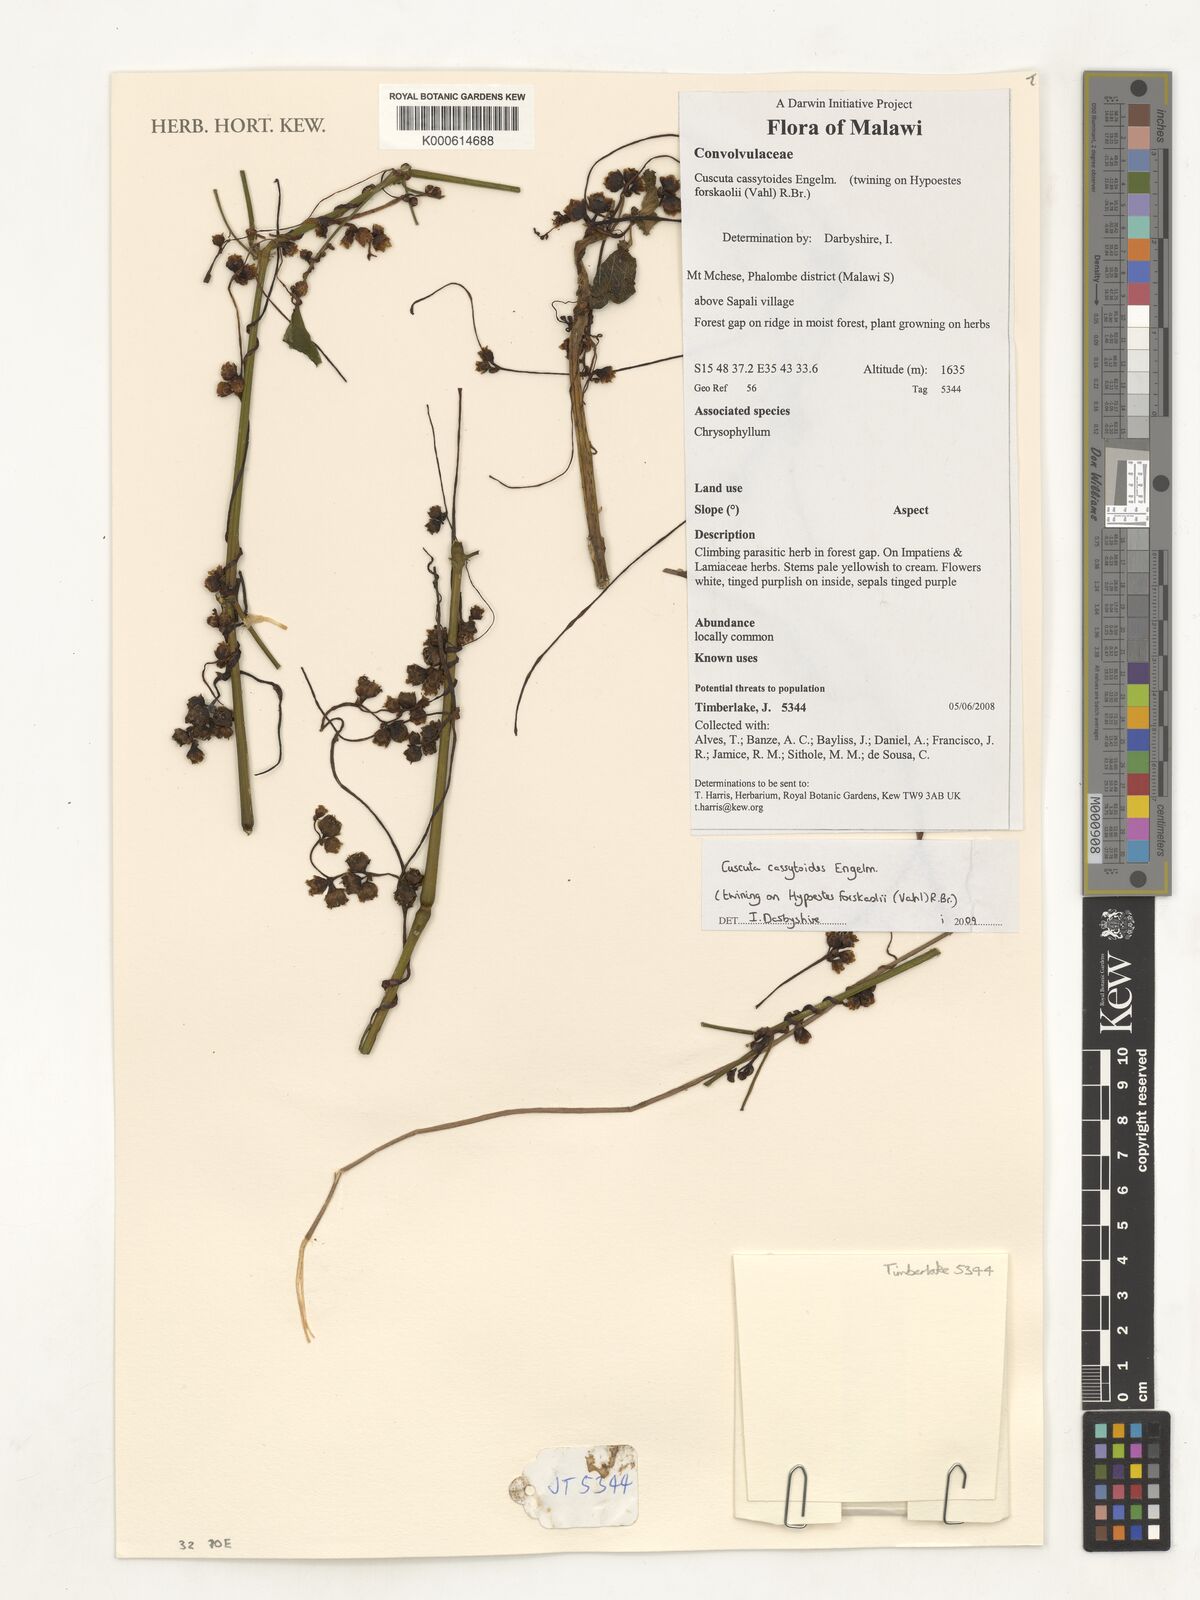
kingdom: Plantae
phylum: Tracheophyta
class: Magnoliopsida
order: Solanales
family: Convolvulaceae
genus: Cuscuta
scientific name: Cuscuta cassytoides
